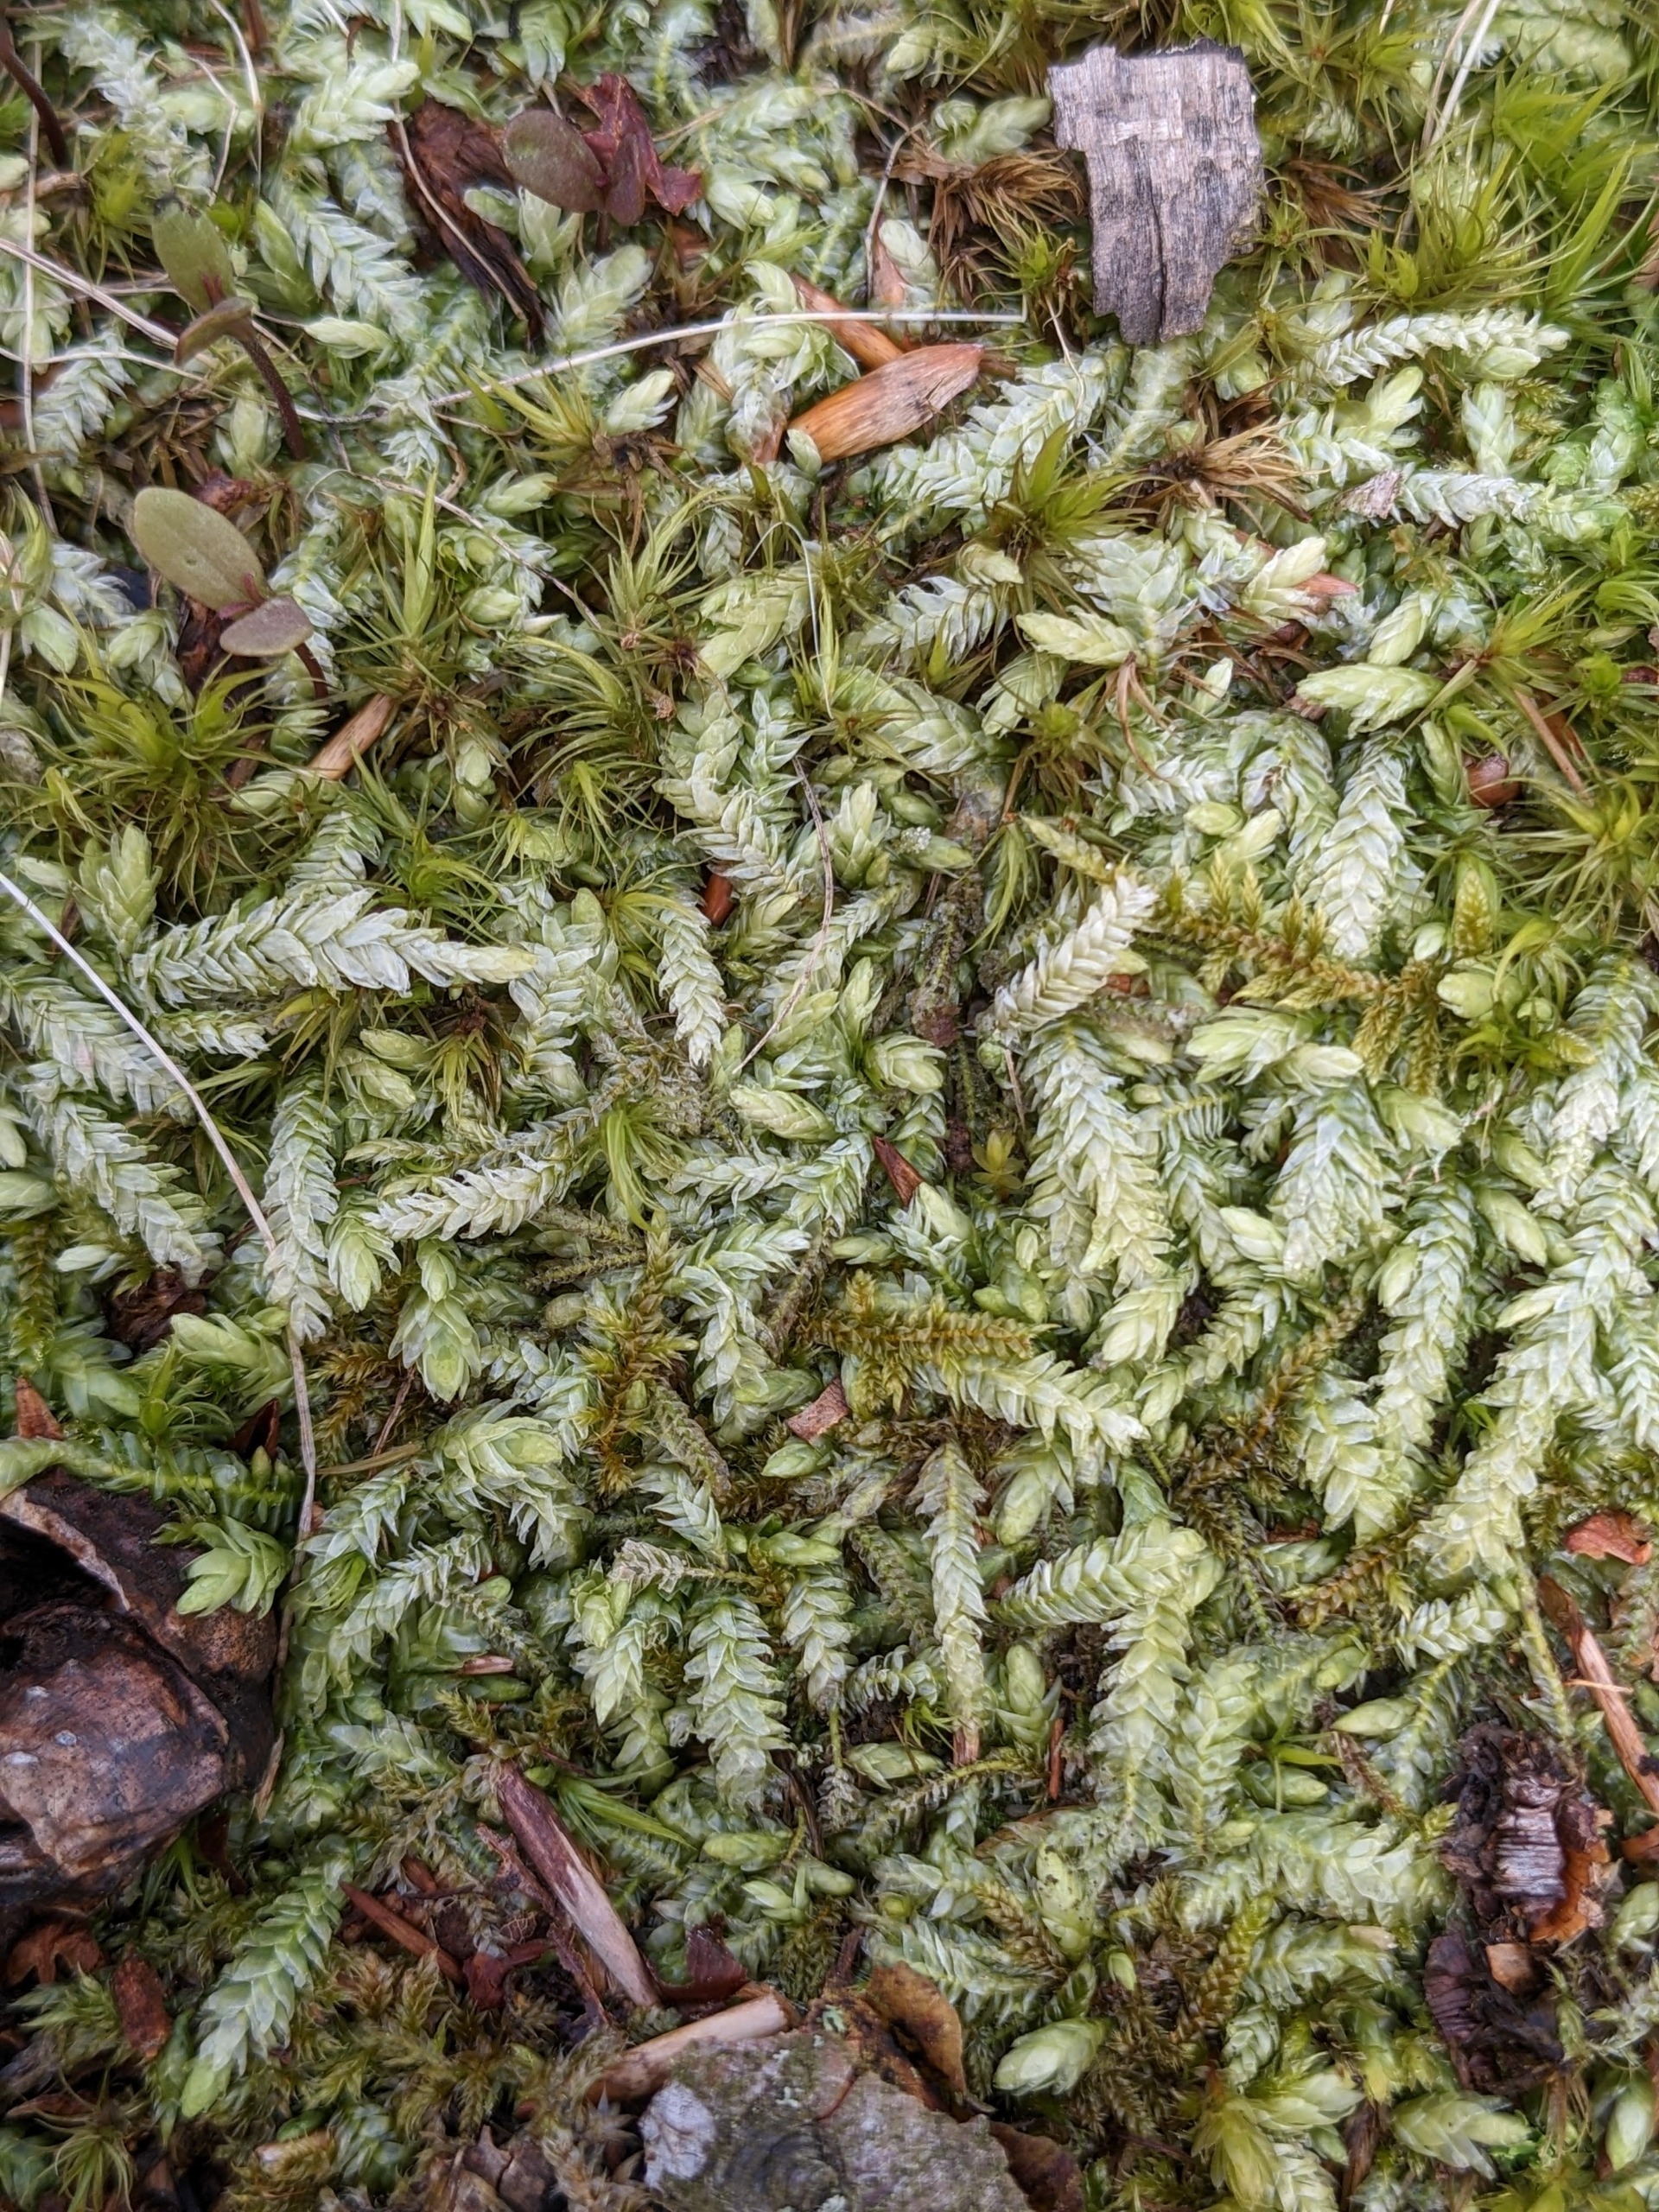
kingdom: Plantae
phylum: Bryophyta
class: Bryopsida
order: Hypnales
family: Plagiotheciaceae
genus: Plagiothecium
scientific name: Plagiothecium undulatum
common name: Bølget tæppemos
